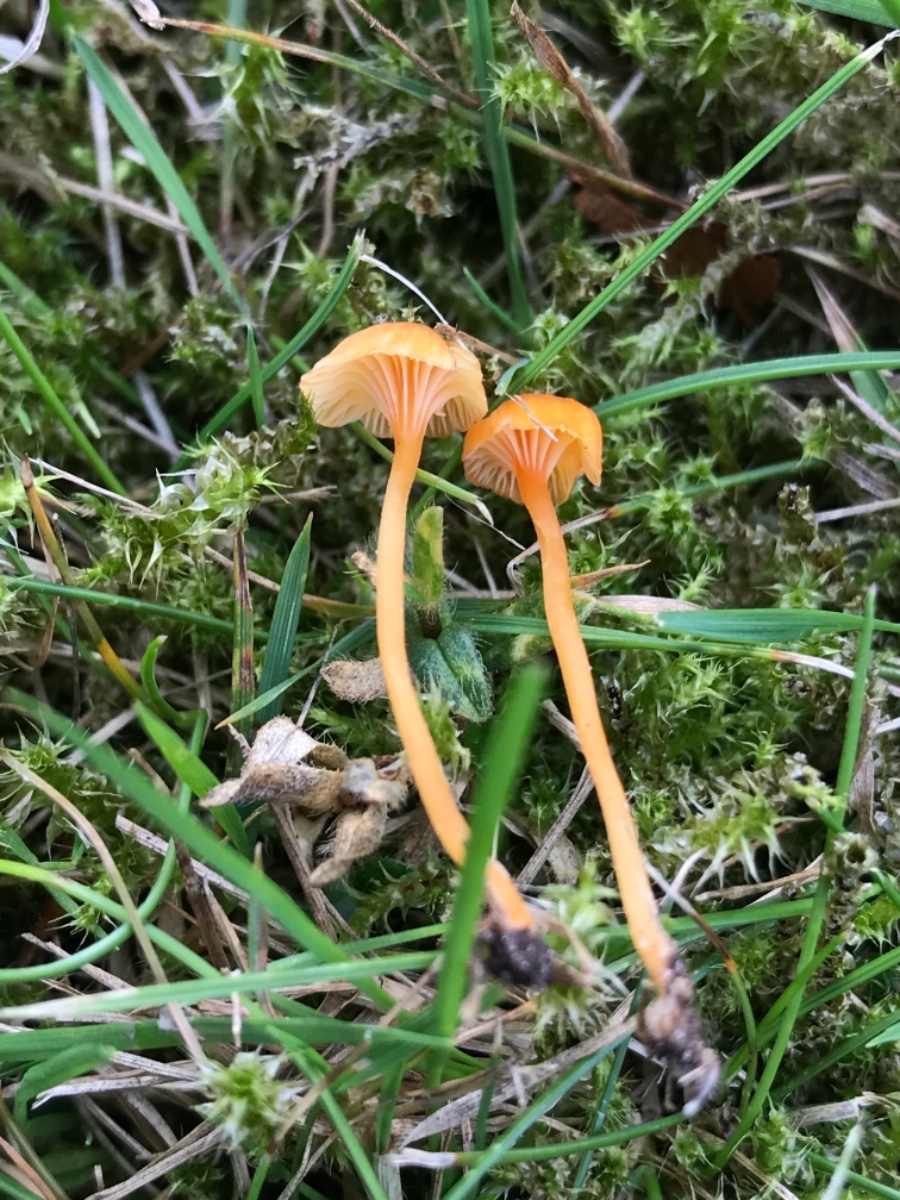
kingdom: Fungi
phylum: Basidiomycota
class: Agaricomycetes
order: Hymenochaetales
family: Rickenellaceae
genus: Rickenella
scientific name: Rickenella fibula
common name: orange mosnavlehat
